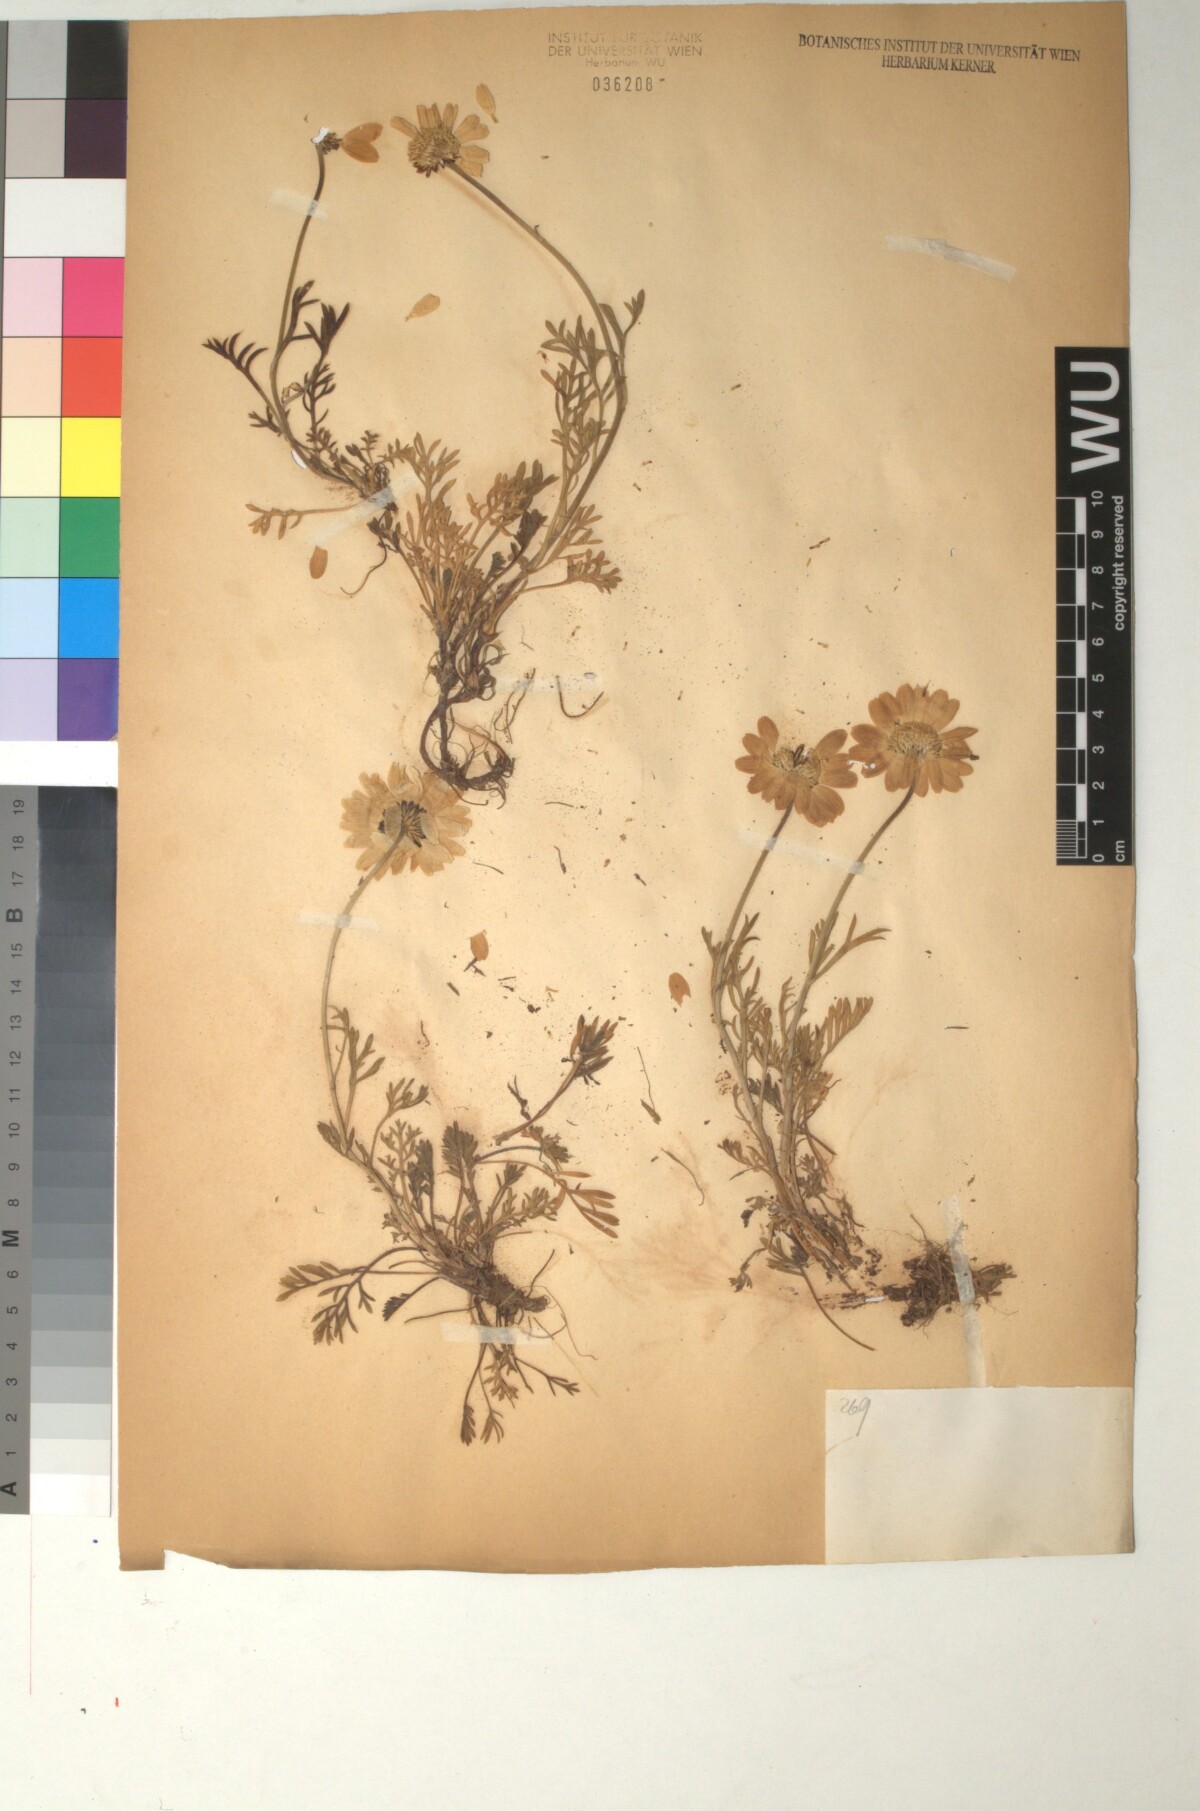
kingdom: Plantae
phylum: Tracheophyta
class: Magnoliopsida
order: Asterales
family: Asteraceae
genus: Anthemis
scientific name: Anthemis cretica
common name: Mountain dog-daisy
